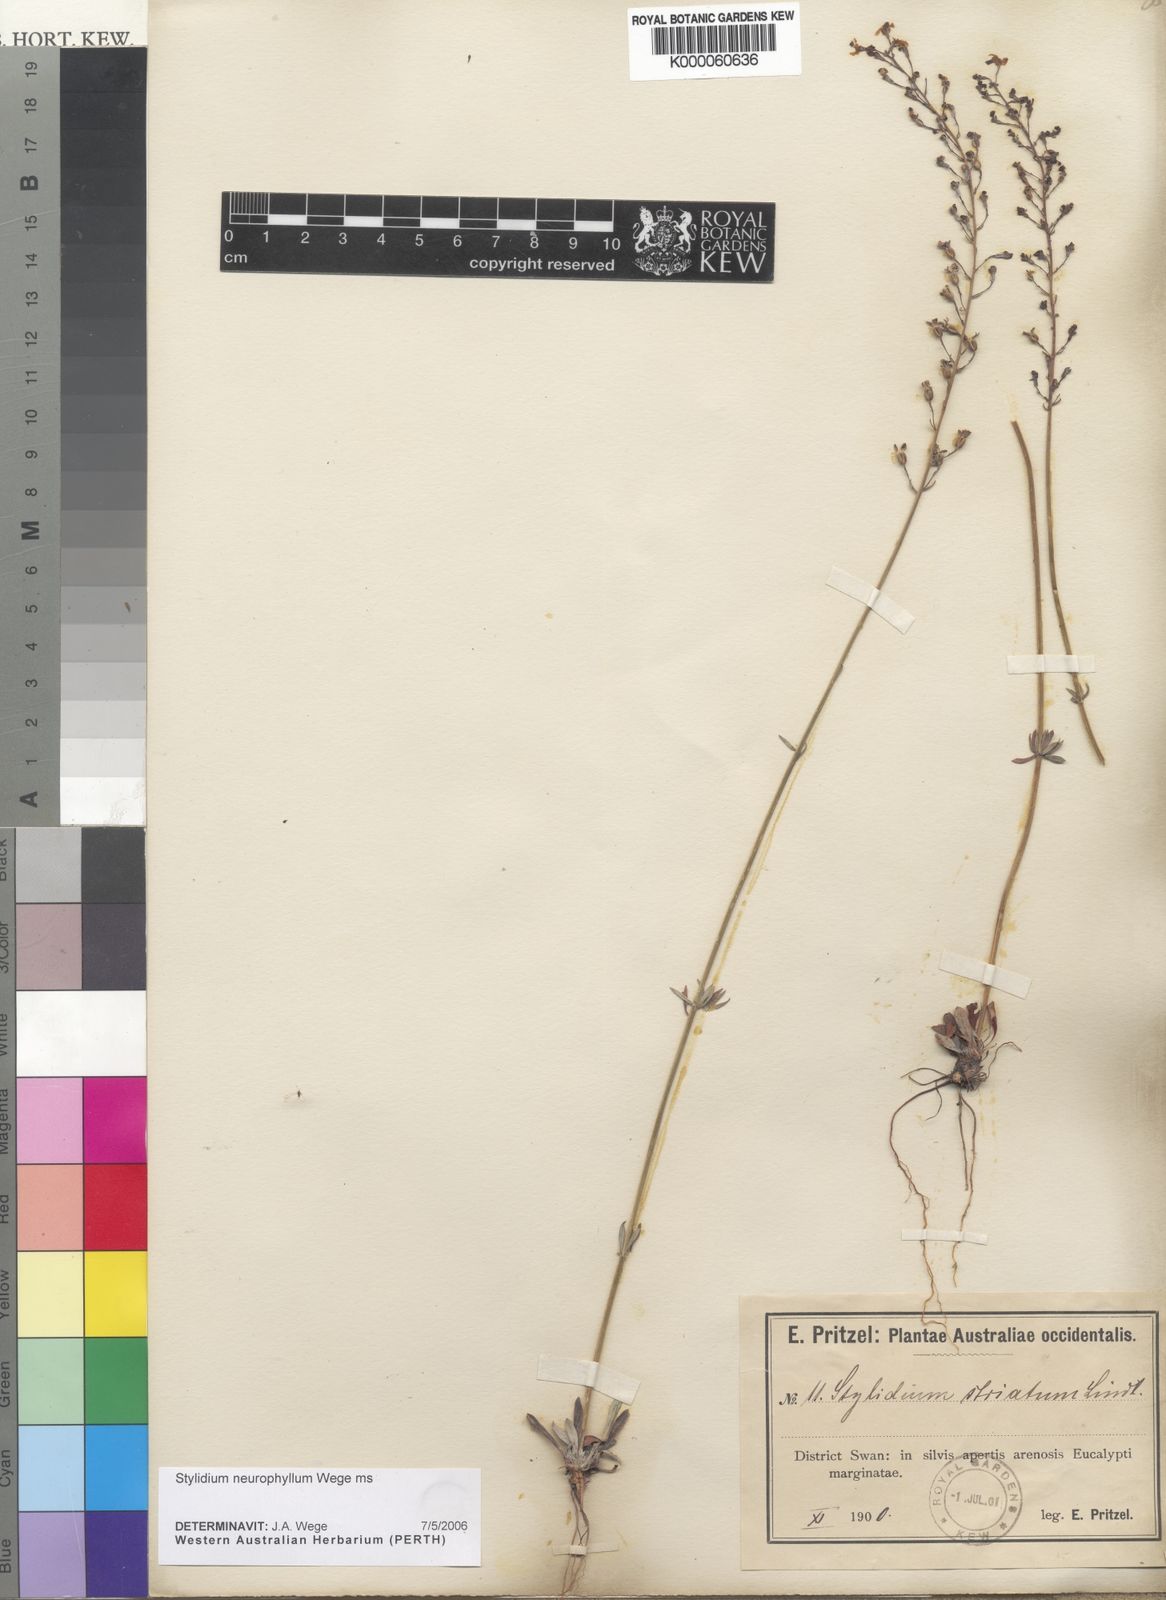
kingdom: Plantae
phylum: Tracheophyta
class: Magnoliopsida
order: Asterales
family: Stylidiaceae
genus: Stylidium
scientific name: Stylidium
